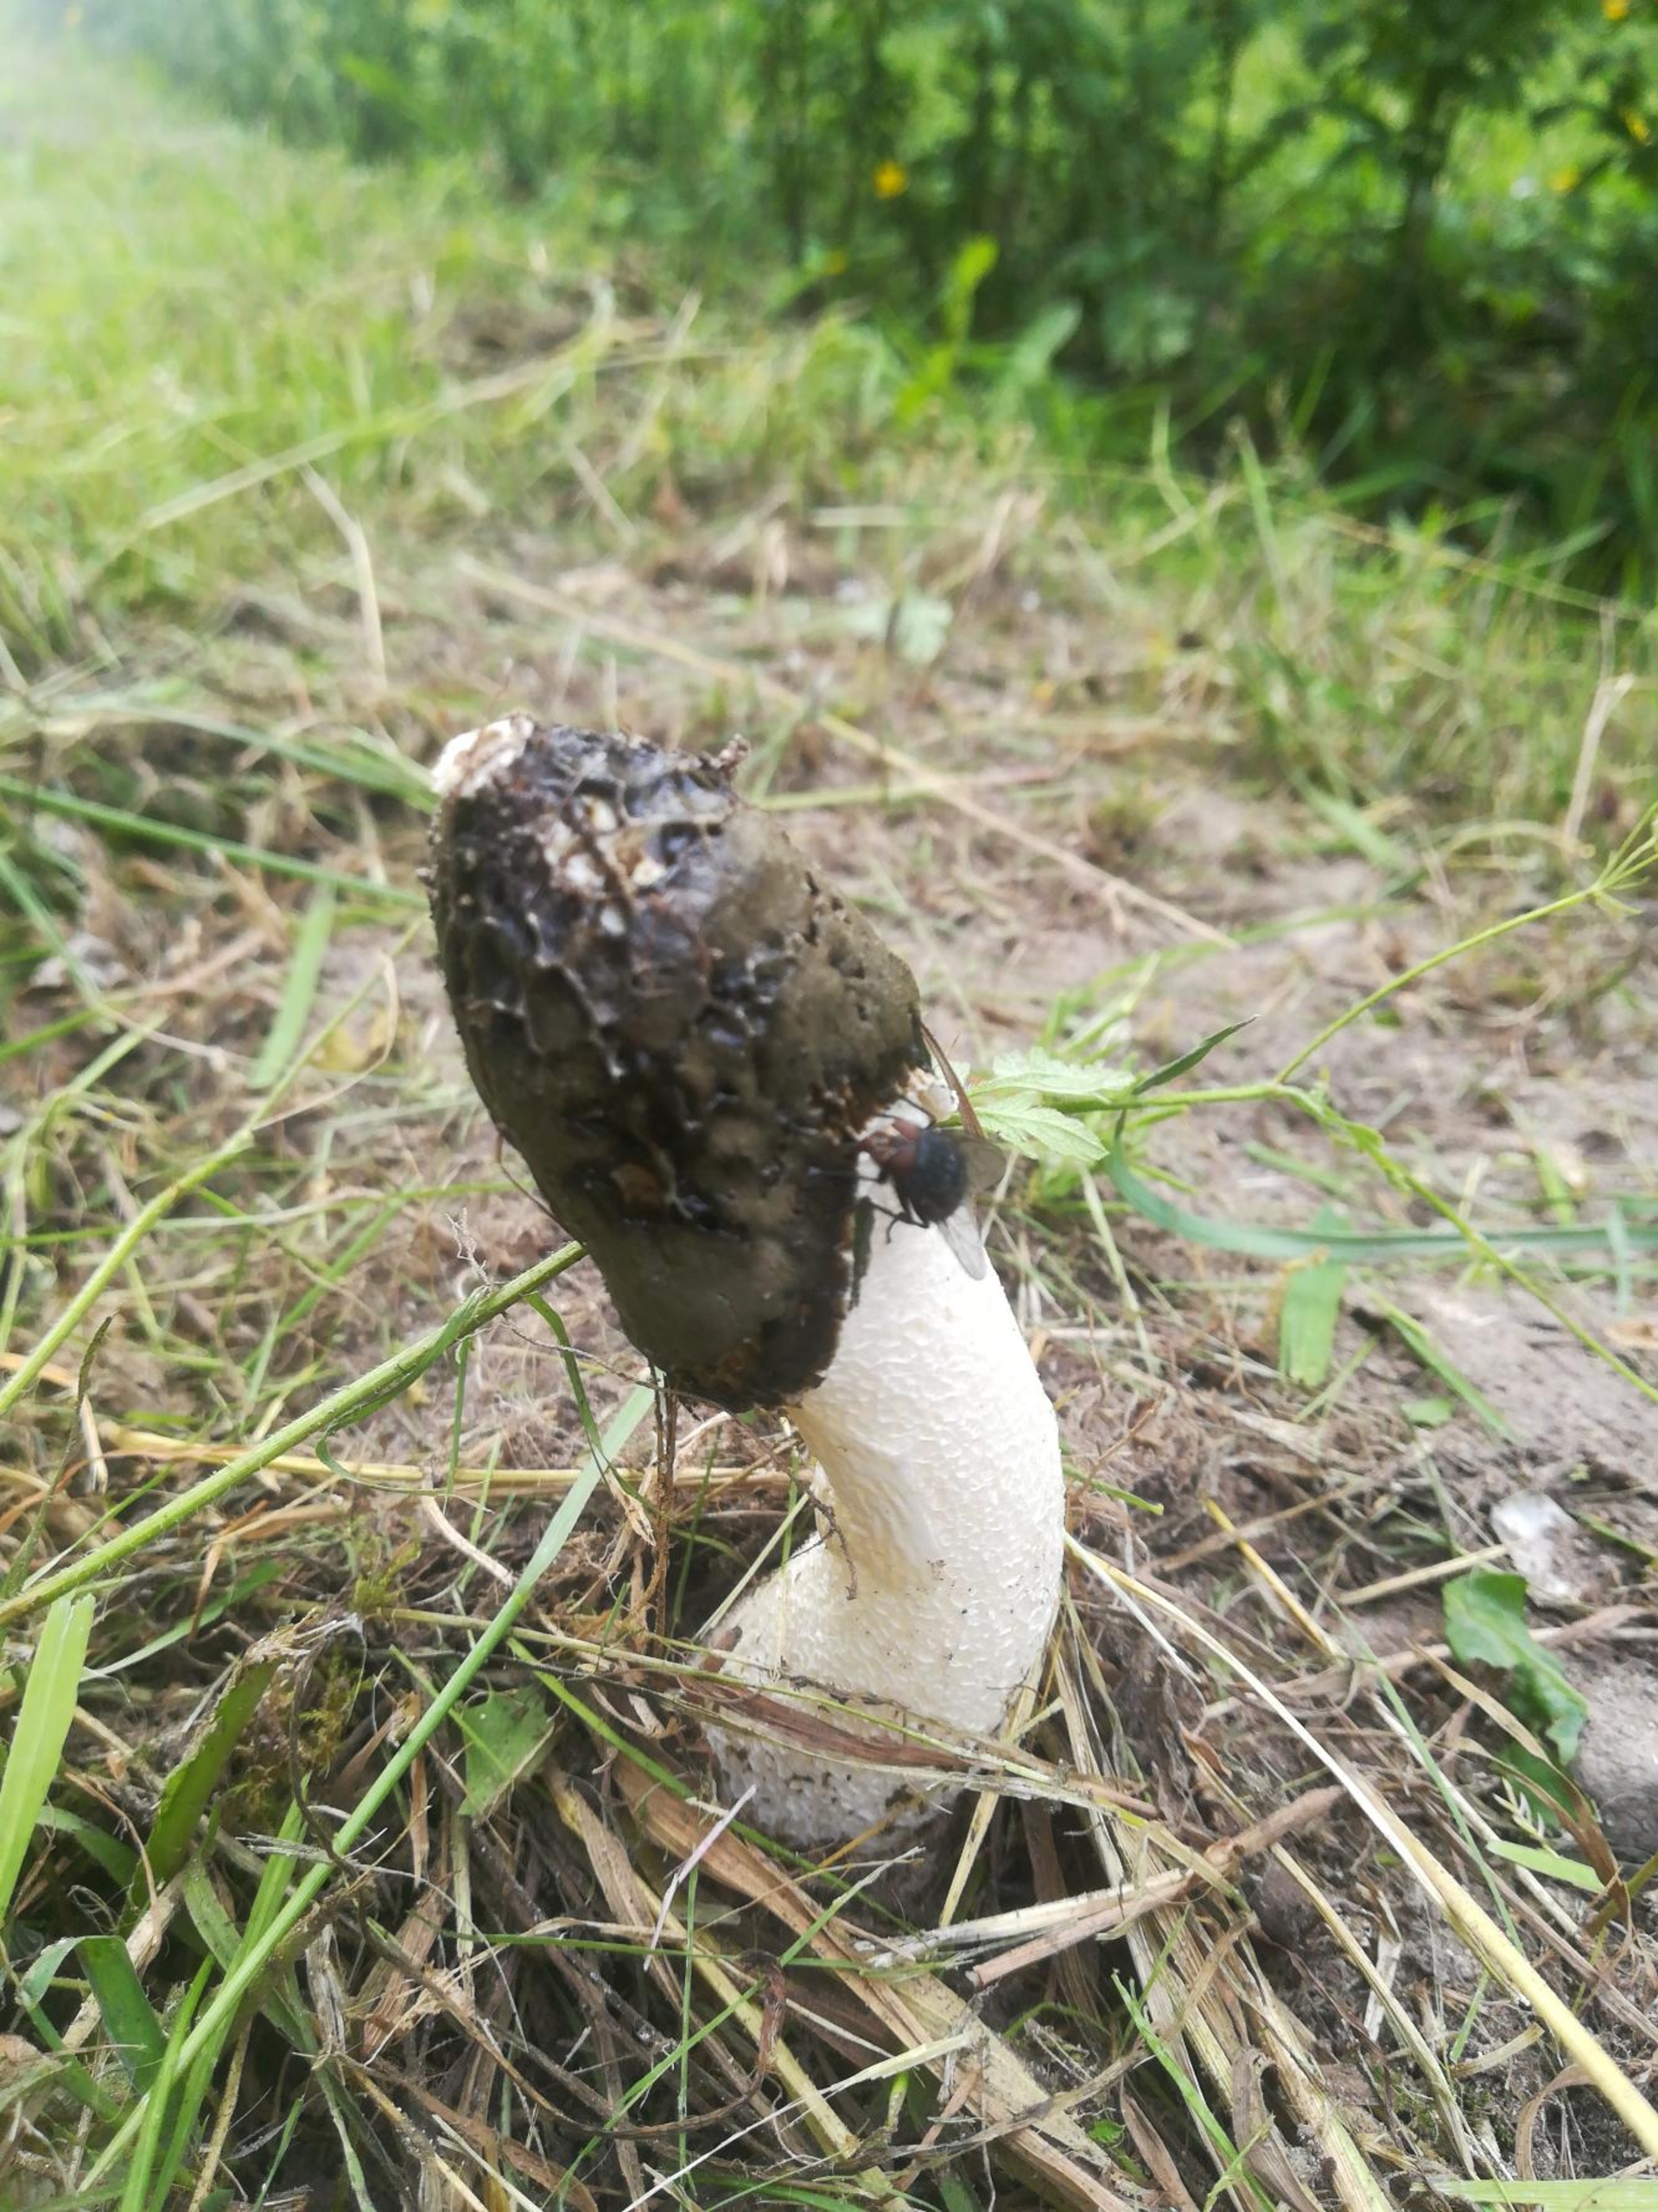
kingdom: Fungi
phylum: Basidiomycota
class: Agaricomycetes
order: Phallales
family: Phallaceae
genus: Phallus
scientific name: Phallus impudicus
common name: Almindelig stinksvamp
